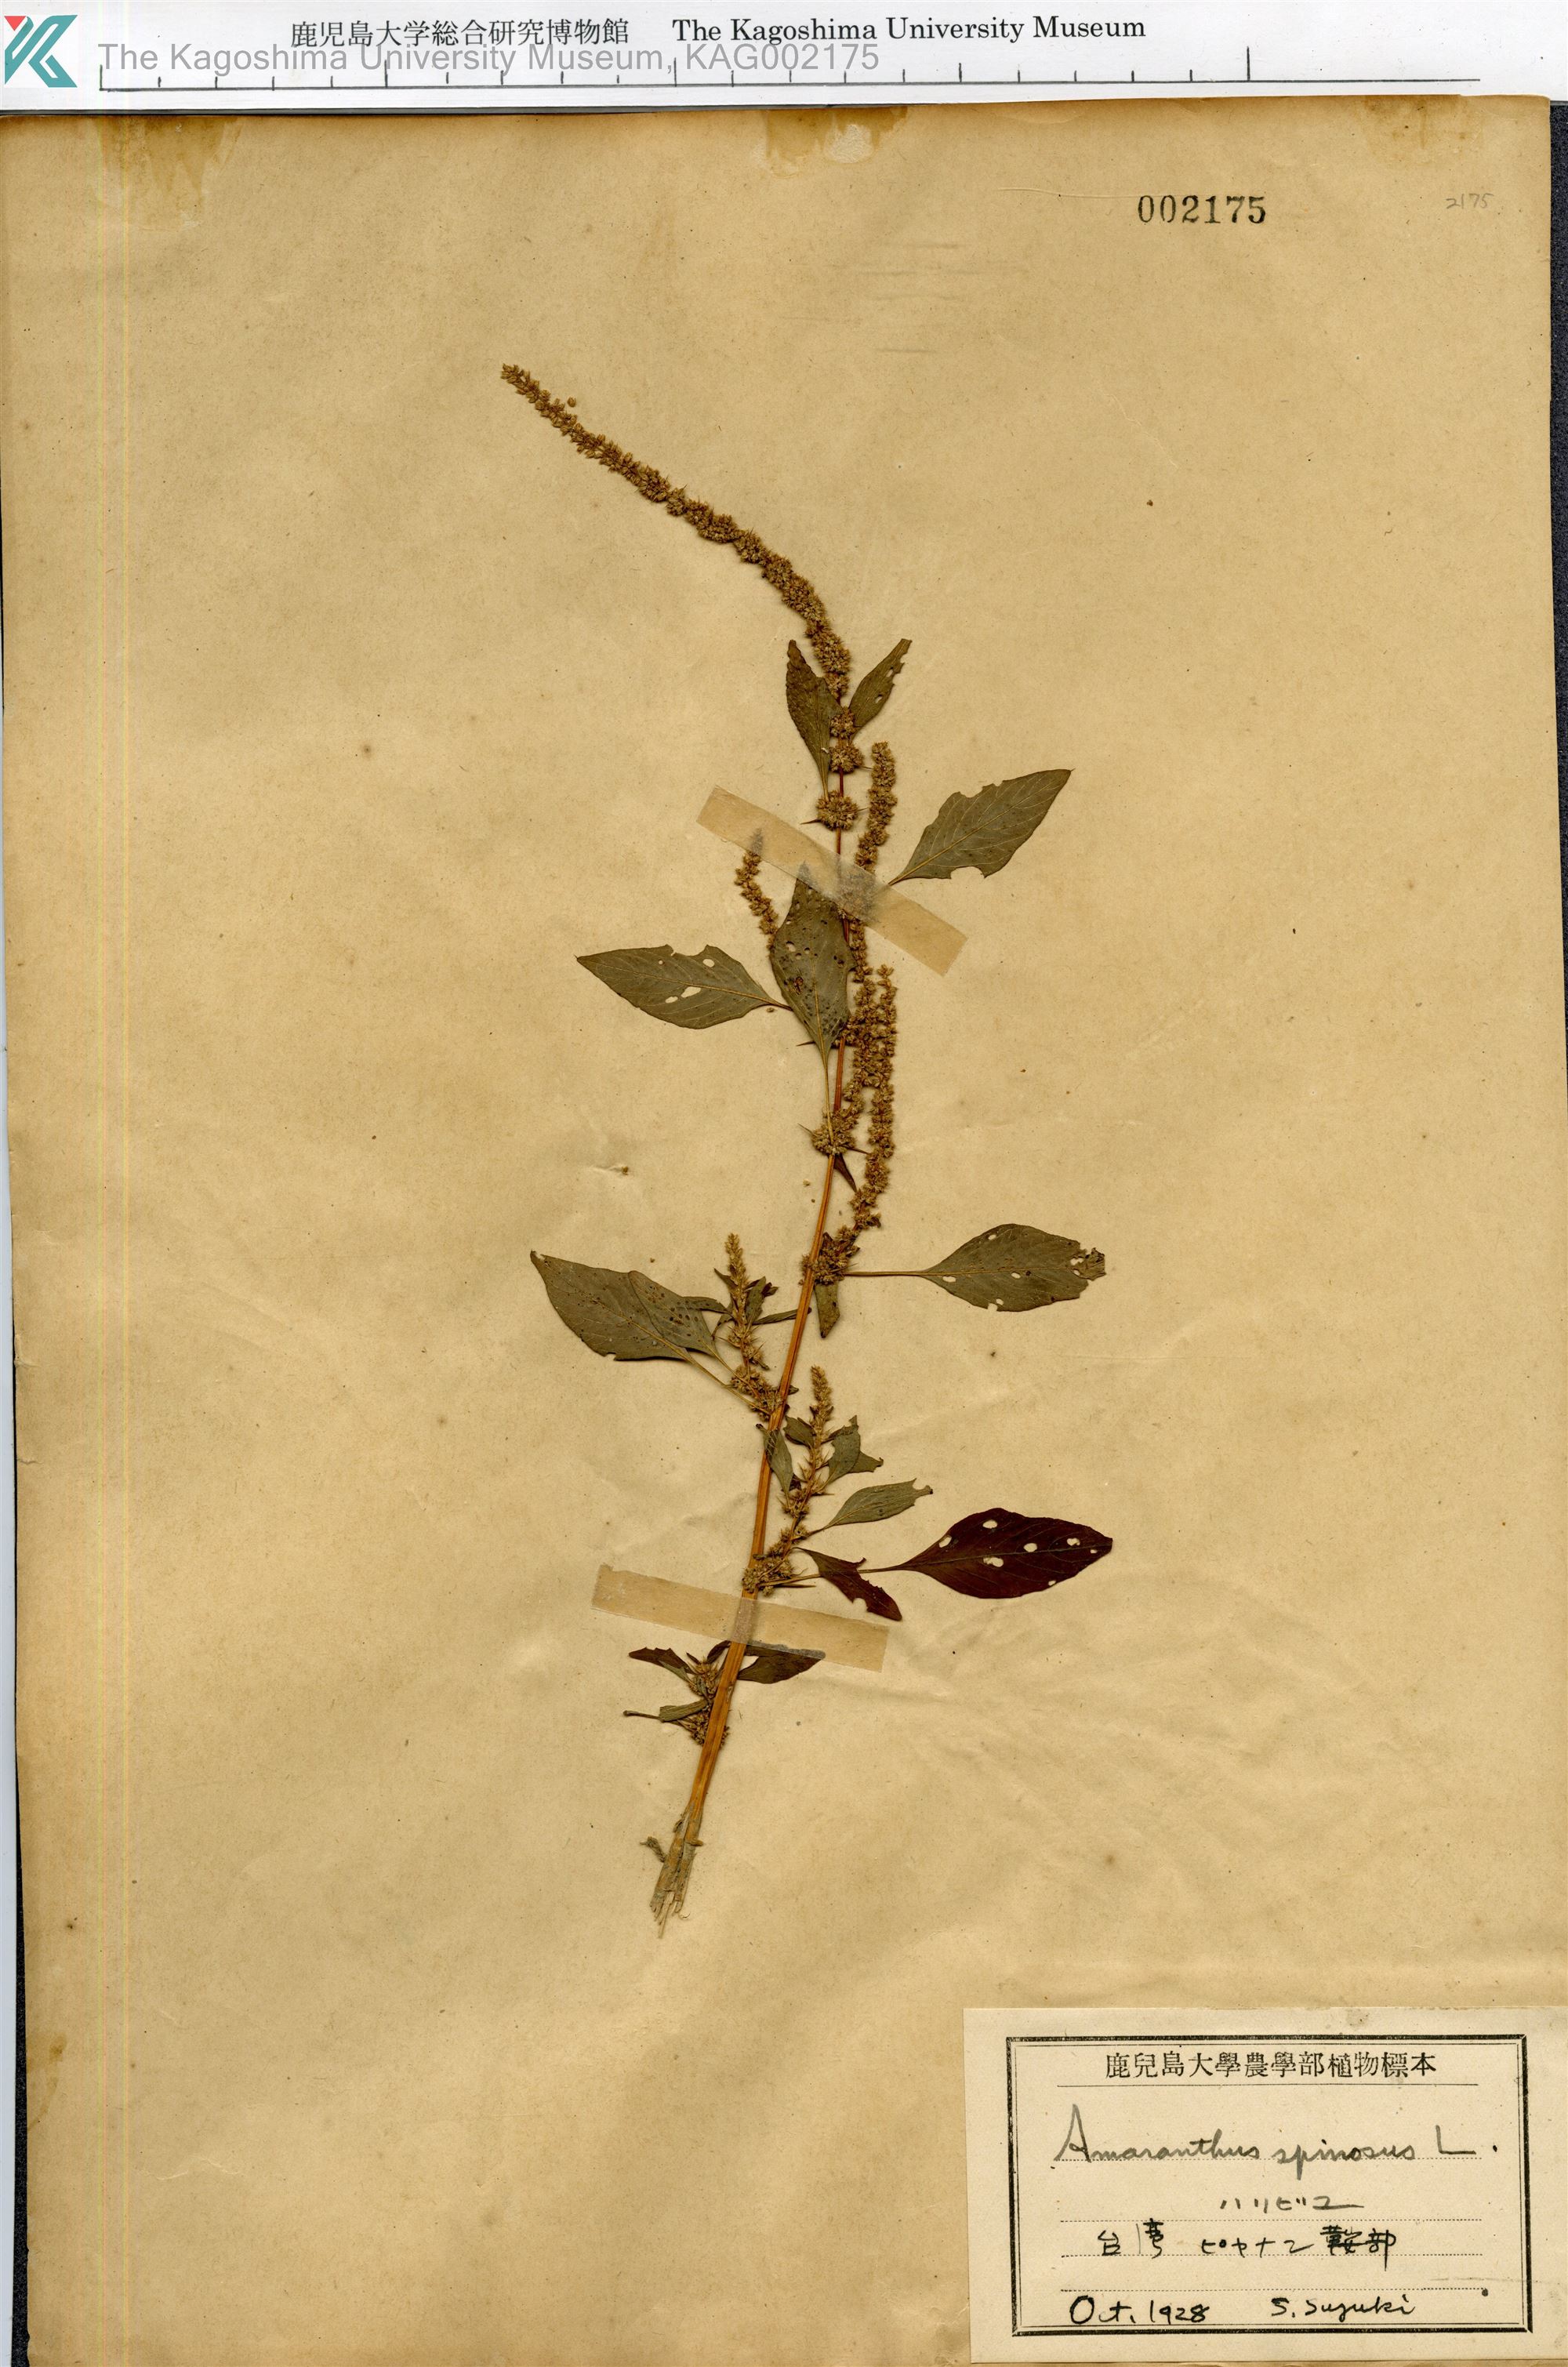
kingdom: Plantae
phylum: Tracheophyta
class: Magnoliopsida
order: Caryophyllales
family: Amaranthaceae
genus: Amaranthus
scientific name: Amaranthus spinosus
